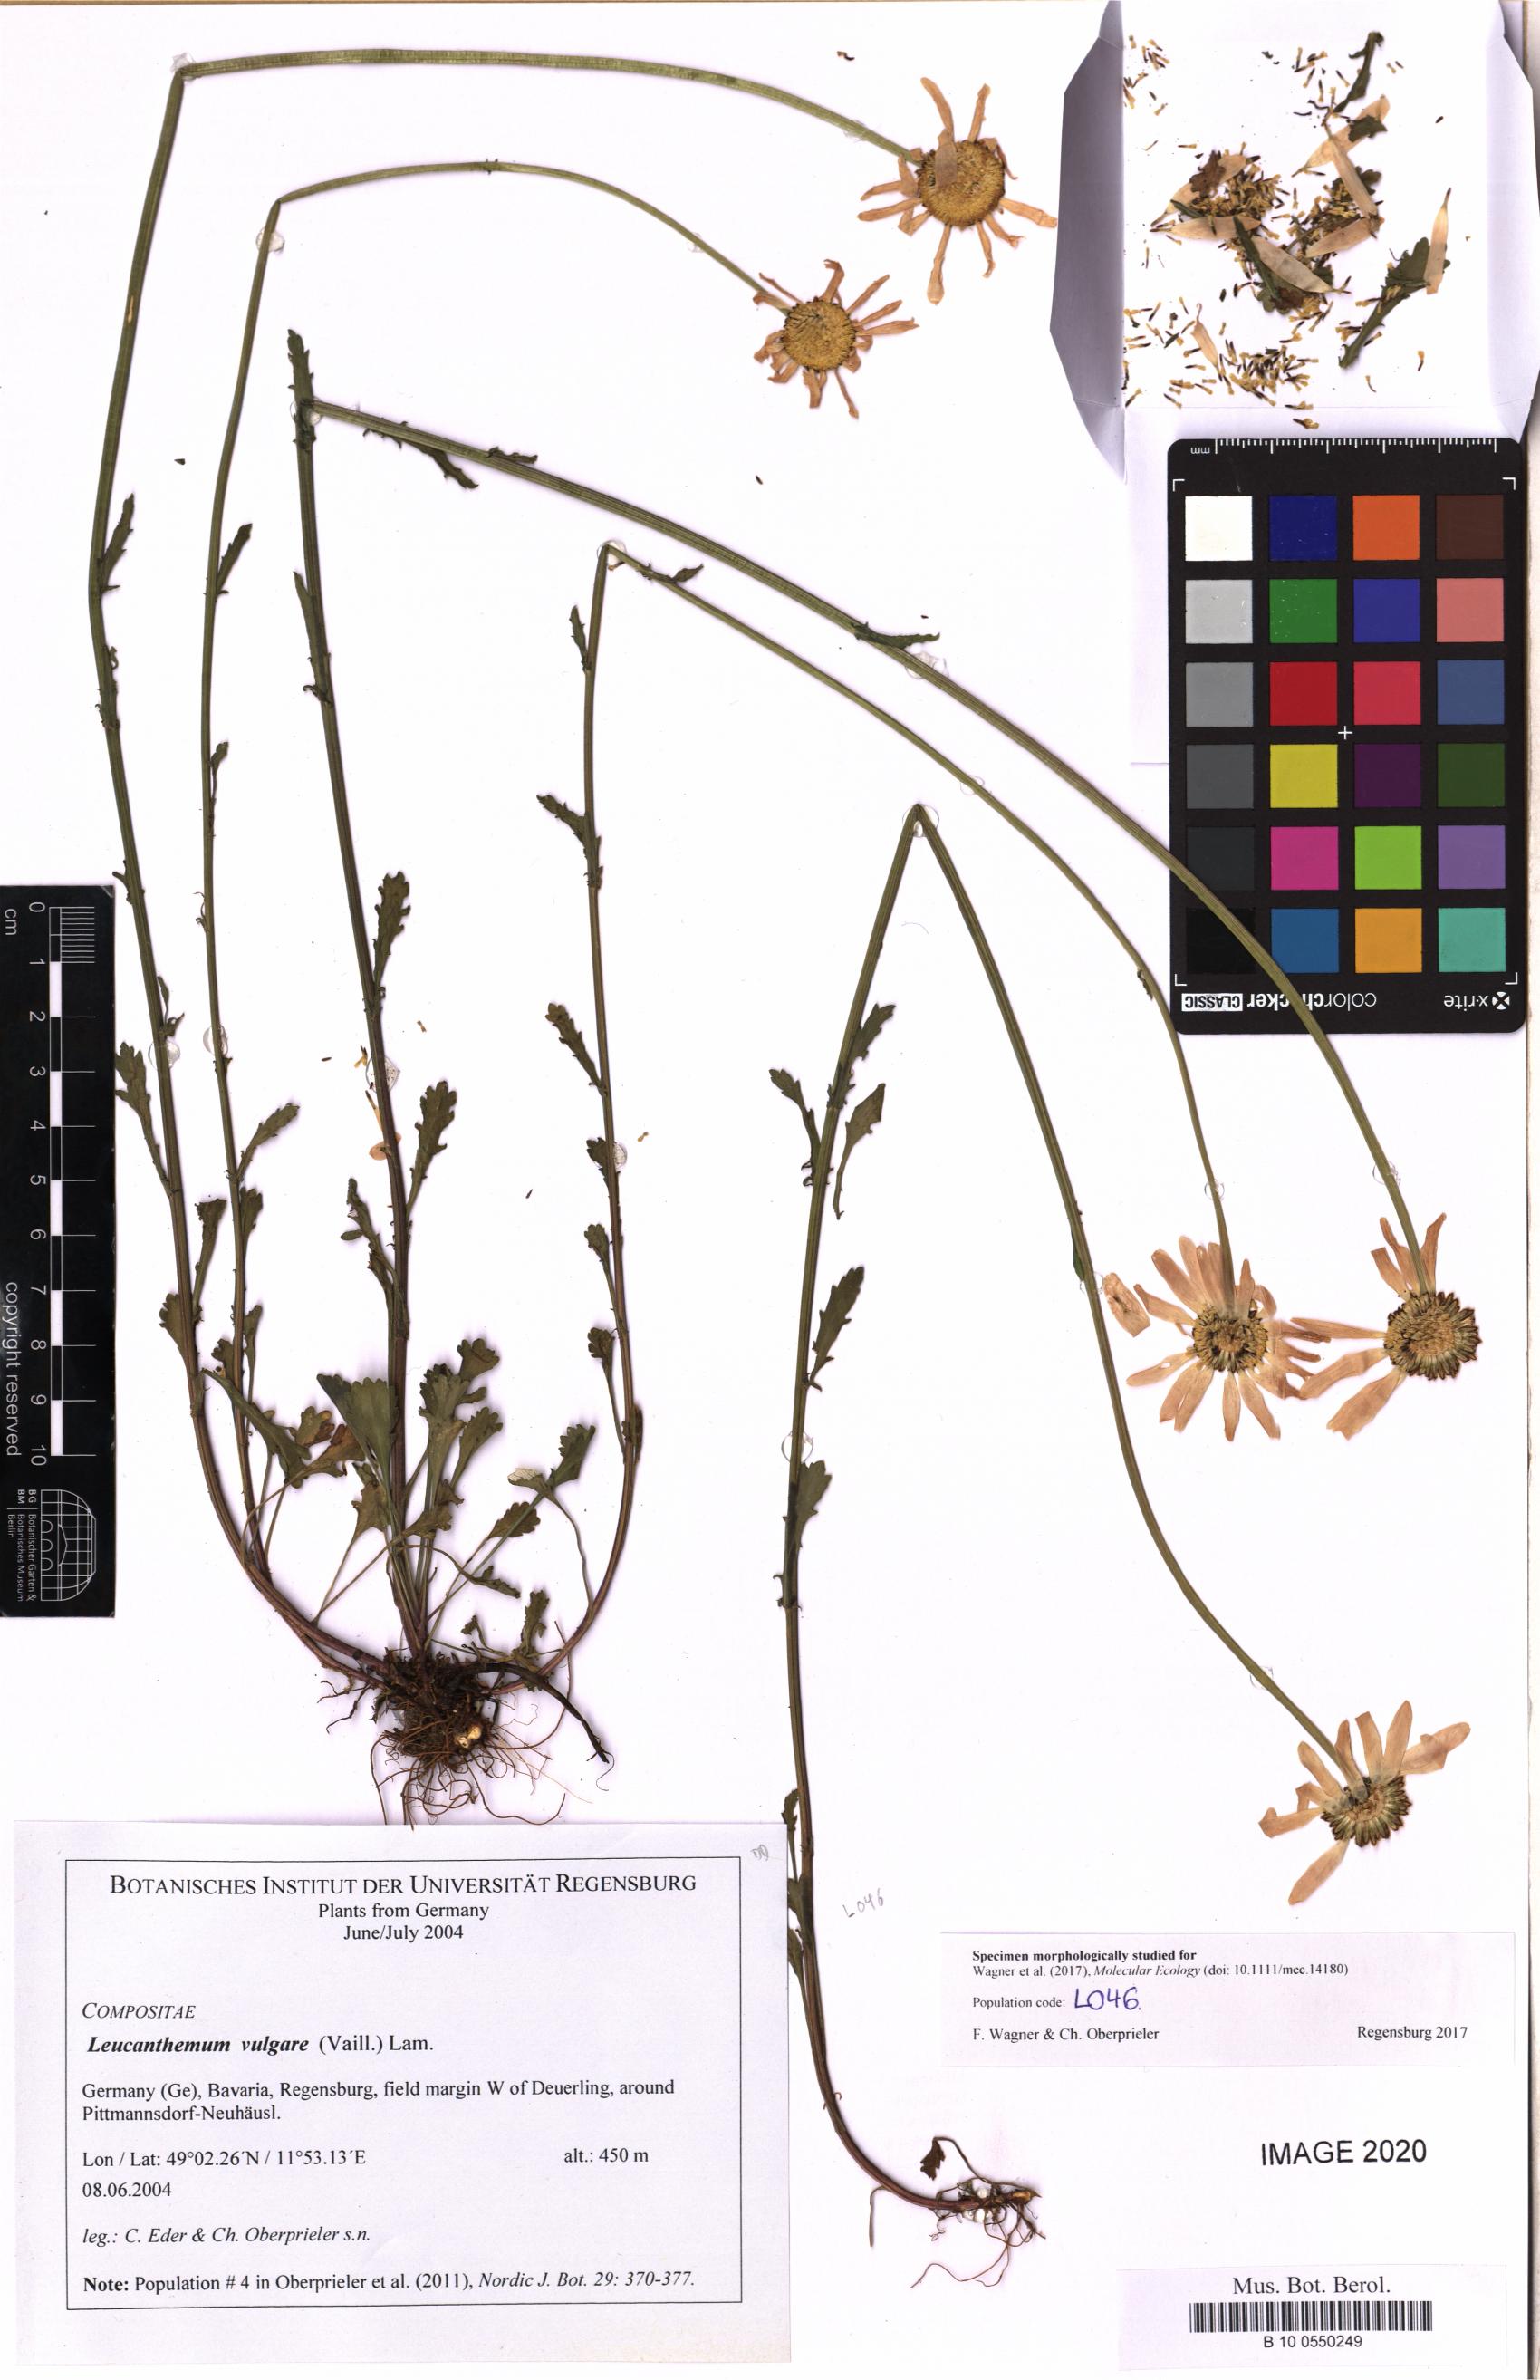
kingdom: Plantae
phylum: Tracheophyta
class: Magnoliopsida
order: Asterales
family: Asteraceae
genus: Leucanthemum
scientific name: Leucanthemum vulgare
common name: Oxeye daisy
